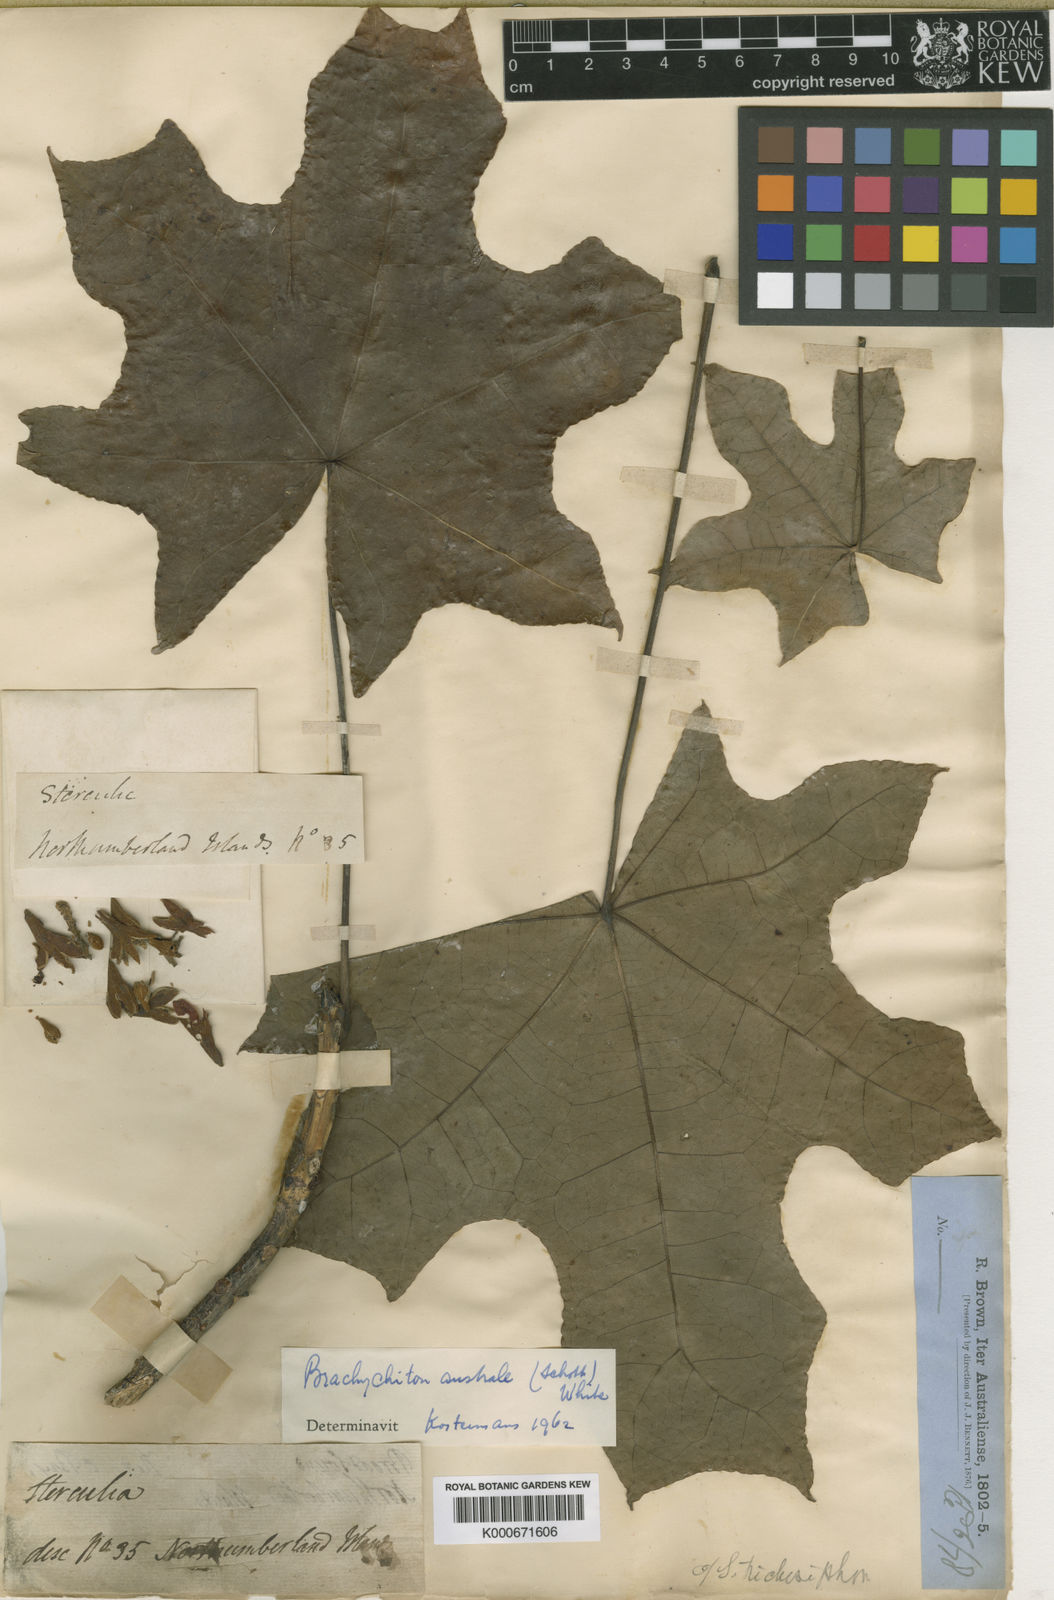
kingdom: Plantae
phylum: Tracheophyta
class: Magnoliopsida
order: Malvales
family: Malvaceae
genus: Brachychiton
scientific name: Brachychiton australis
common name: Large-leaf bottletree
